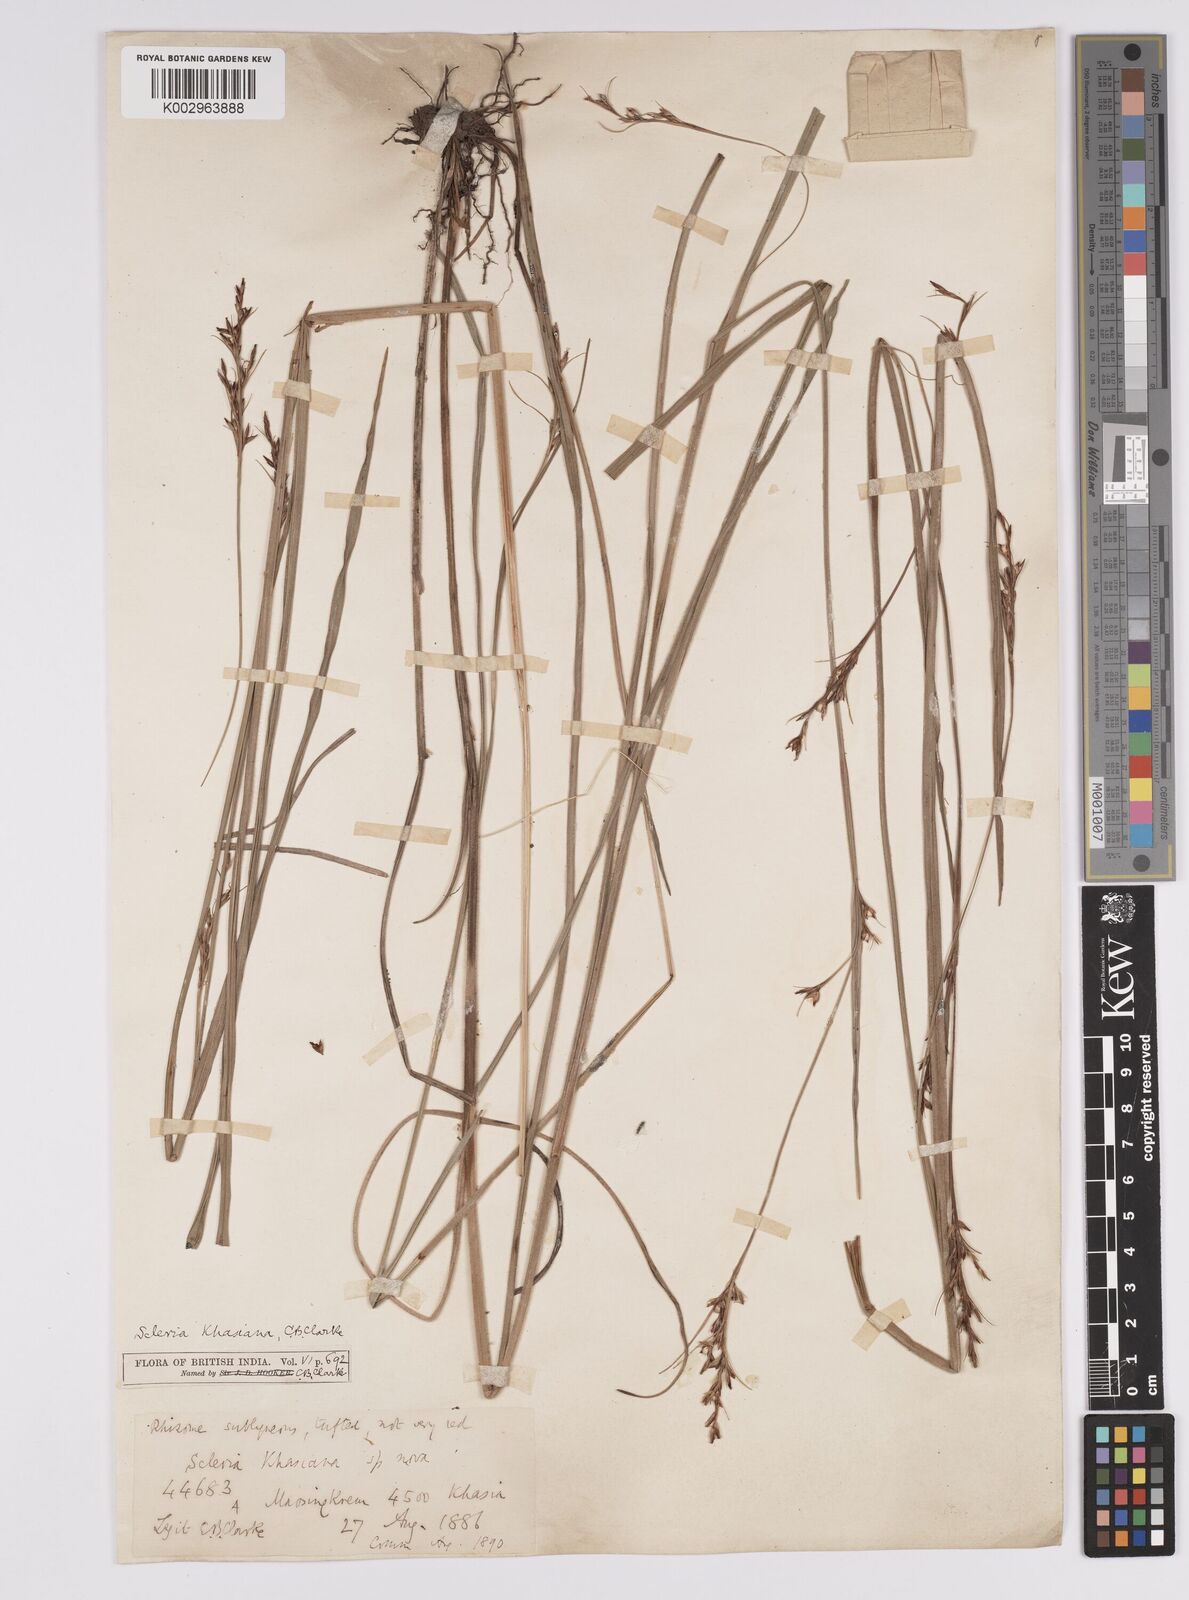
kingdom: Plantae
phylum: Tracheophyta
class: Liliopsida
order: Poales
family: Cyperaceae
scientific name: Cyperaceae
